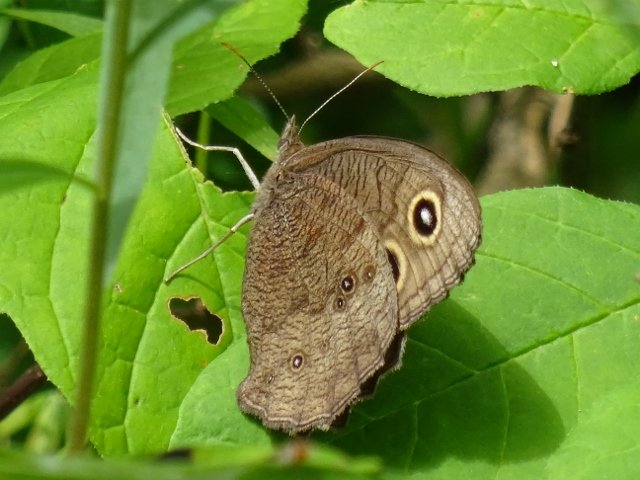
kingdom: Animalia
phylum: Arthropoda
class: Insecta
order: Lepidoptera
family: Nymphalidae
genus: Cercyonis
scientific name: Cercyonis pegala
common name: Common Wood-Nymph
